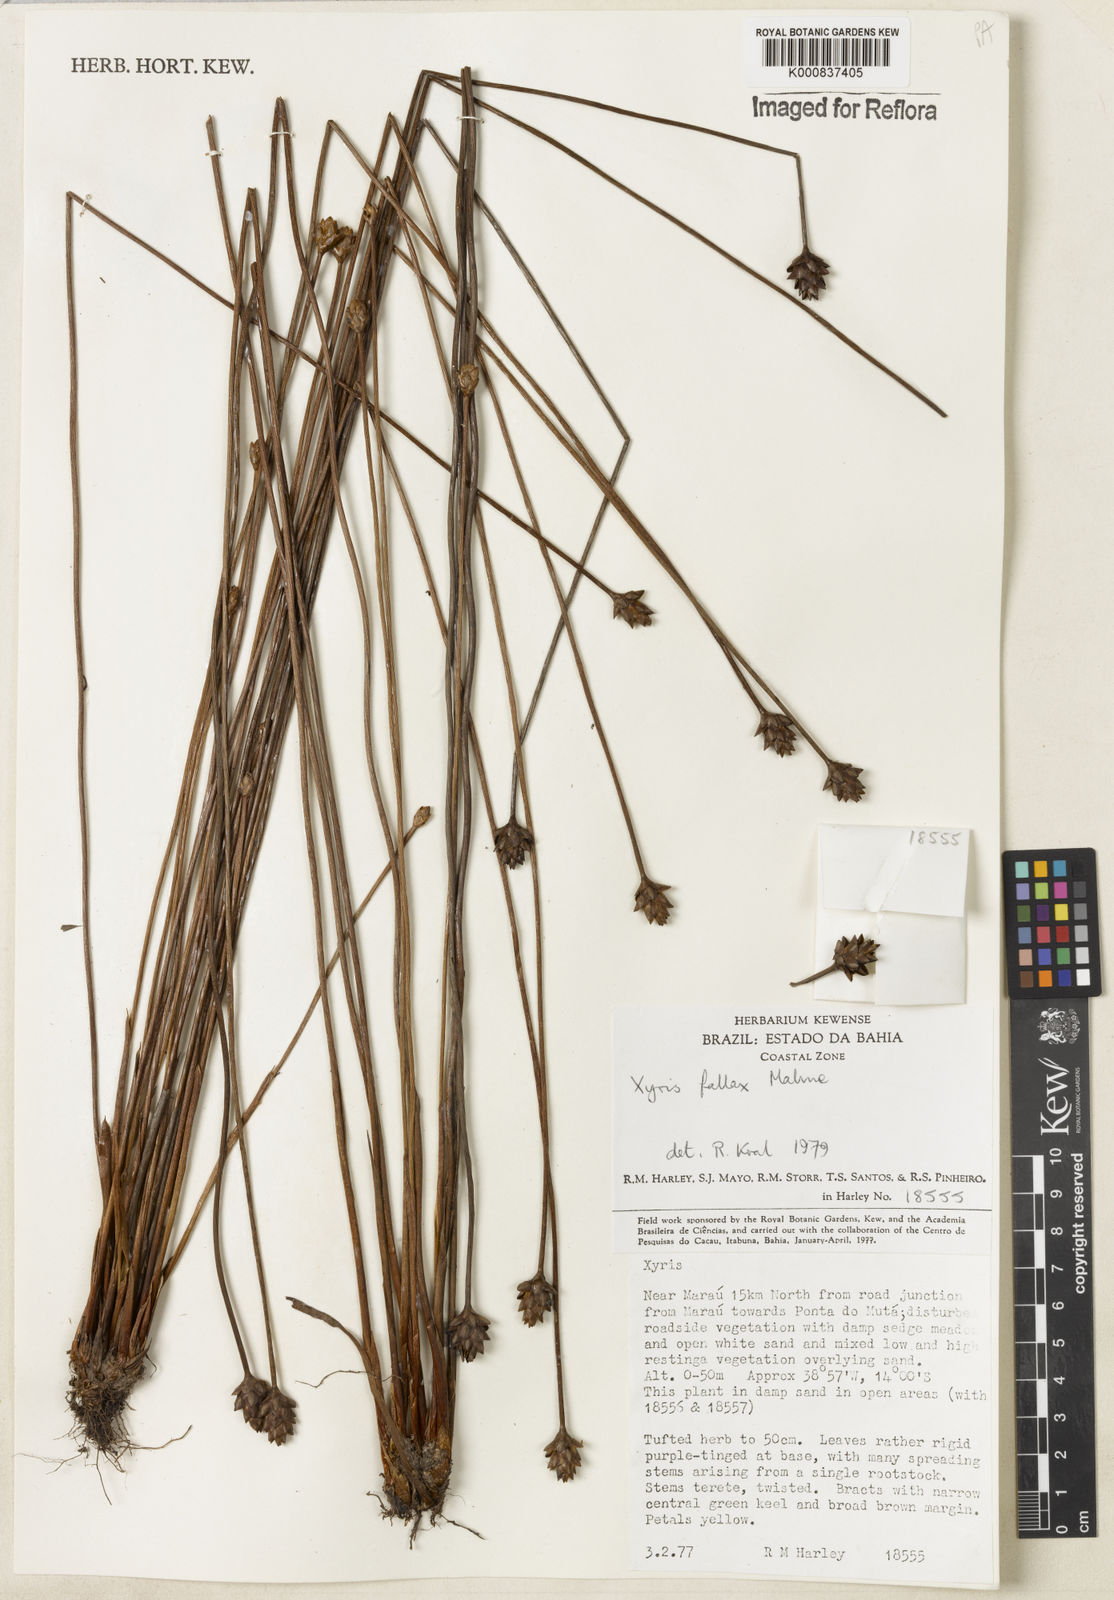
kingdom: Plantae
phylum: Tracheophyta
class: Liliopsida
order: Poales
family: Xyridaceae
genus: Xyris
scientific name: Xyris fallax
